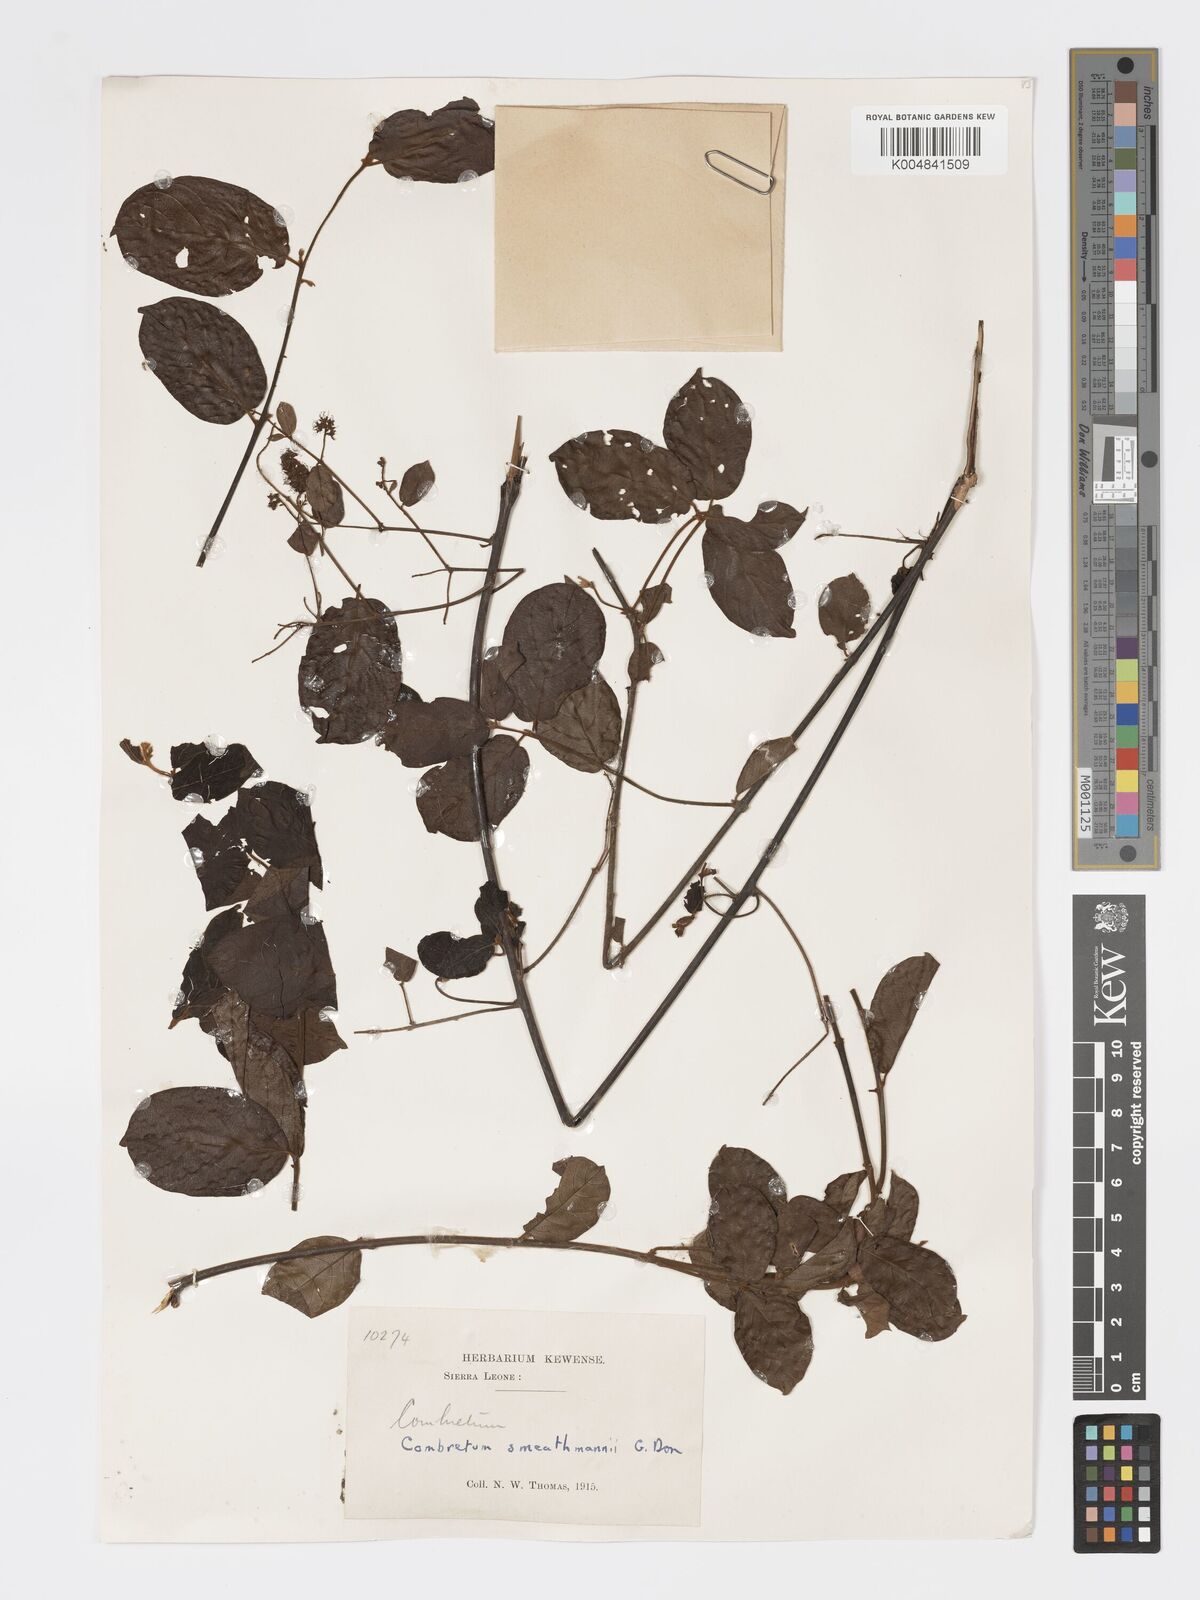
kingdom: Plantae
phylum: Tracheophyta
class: Magnoliopsida
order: Myrtales
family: Combretaceae
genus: Combretum
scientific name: Combretum mucronatum
